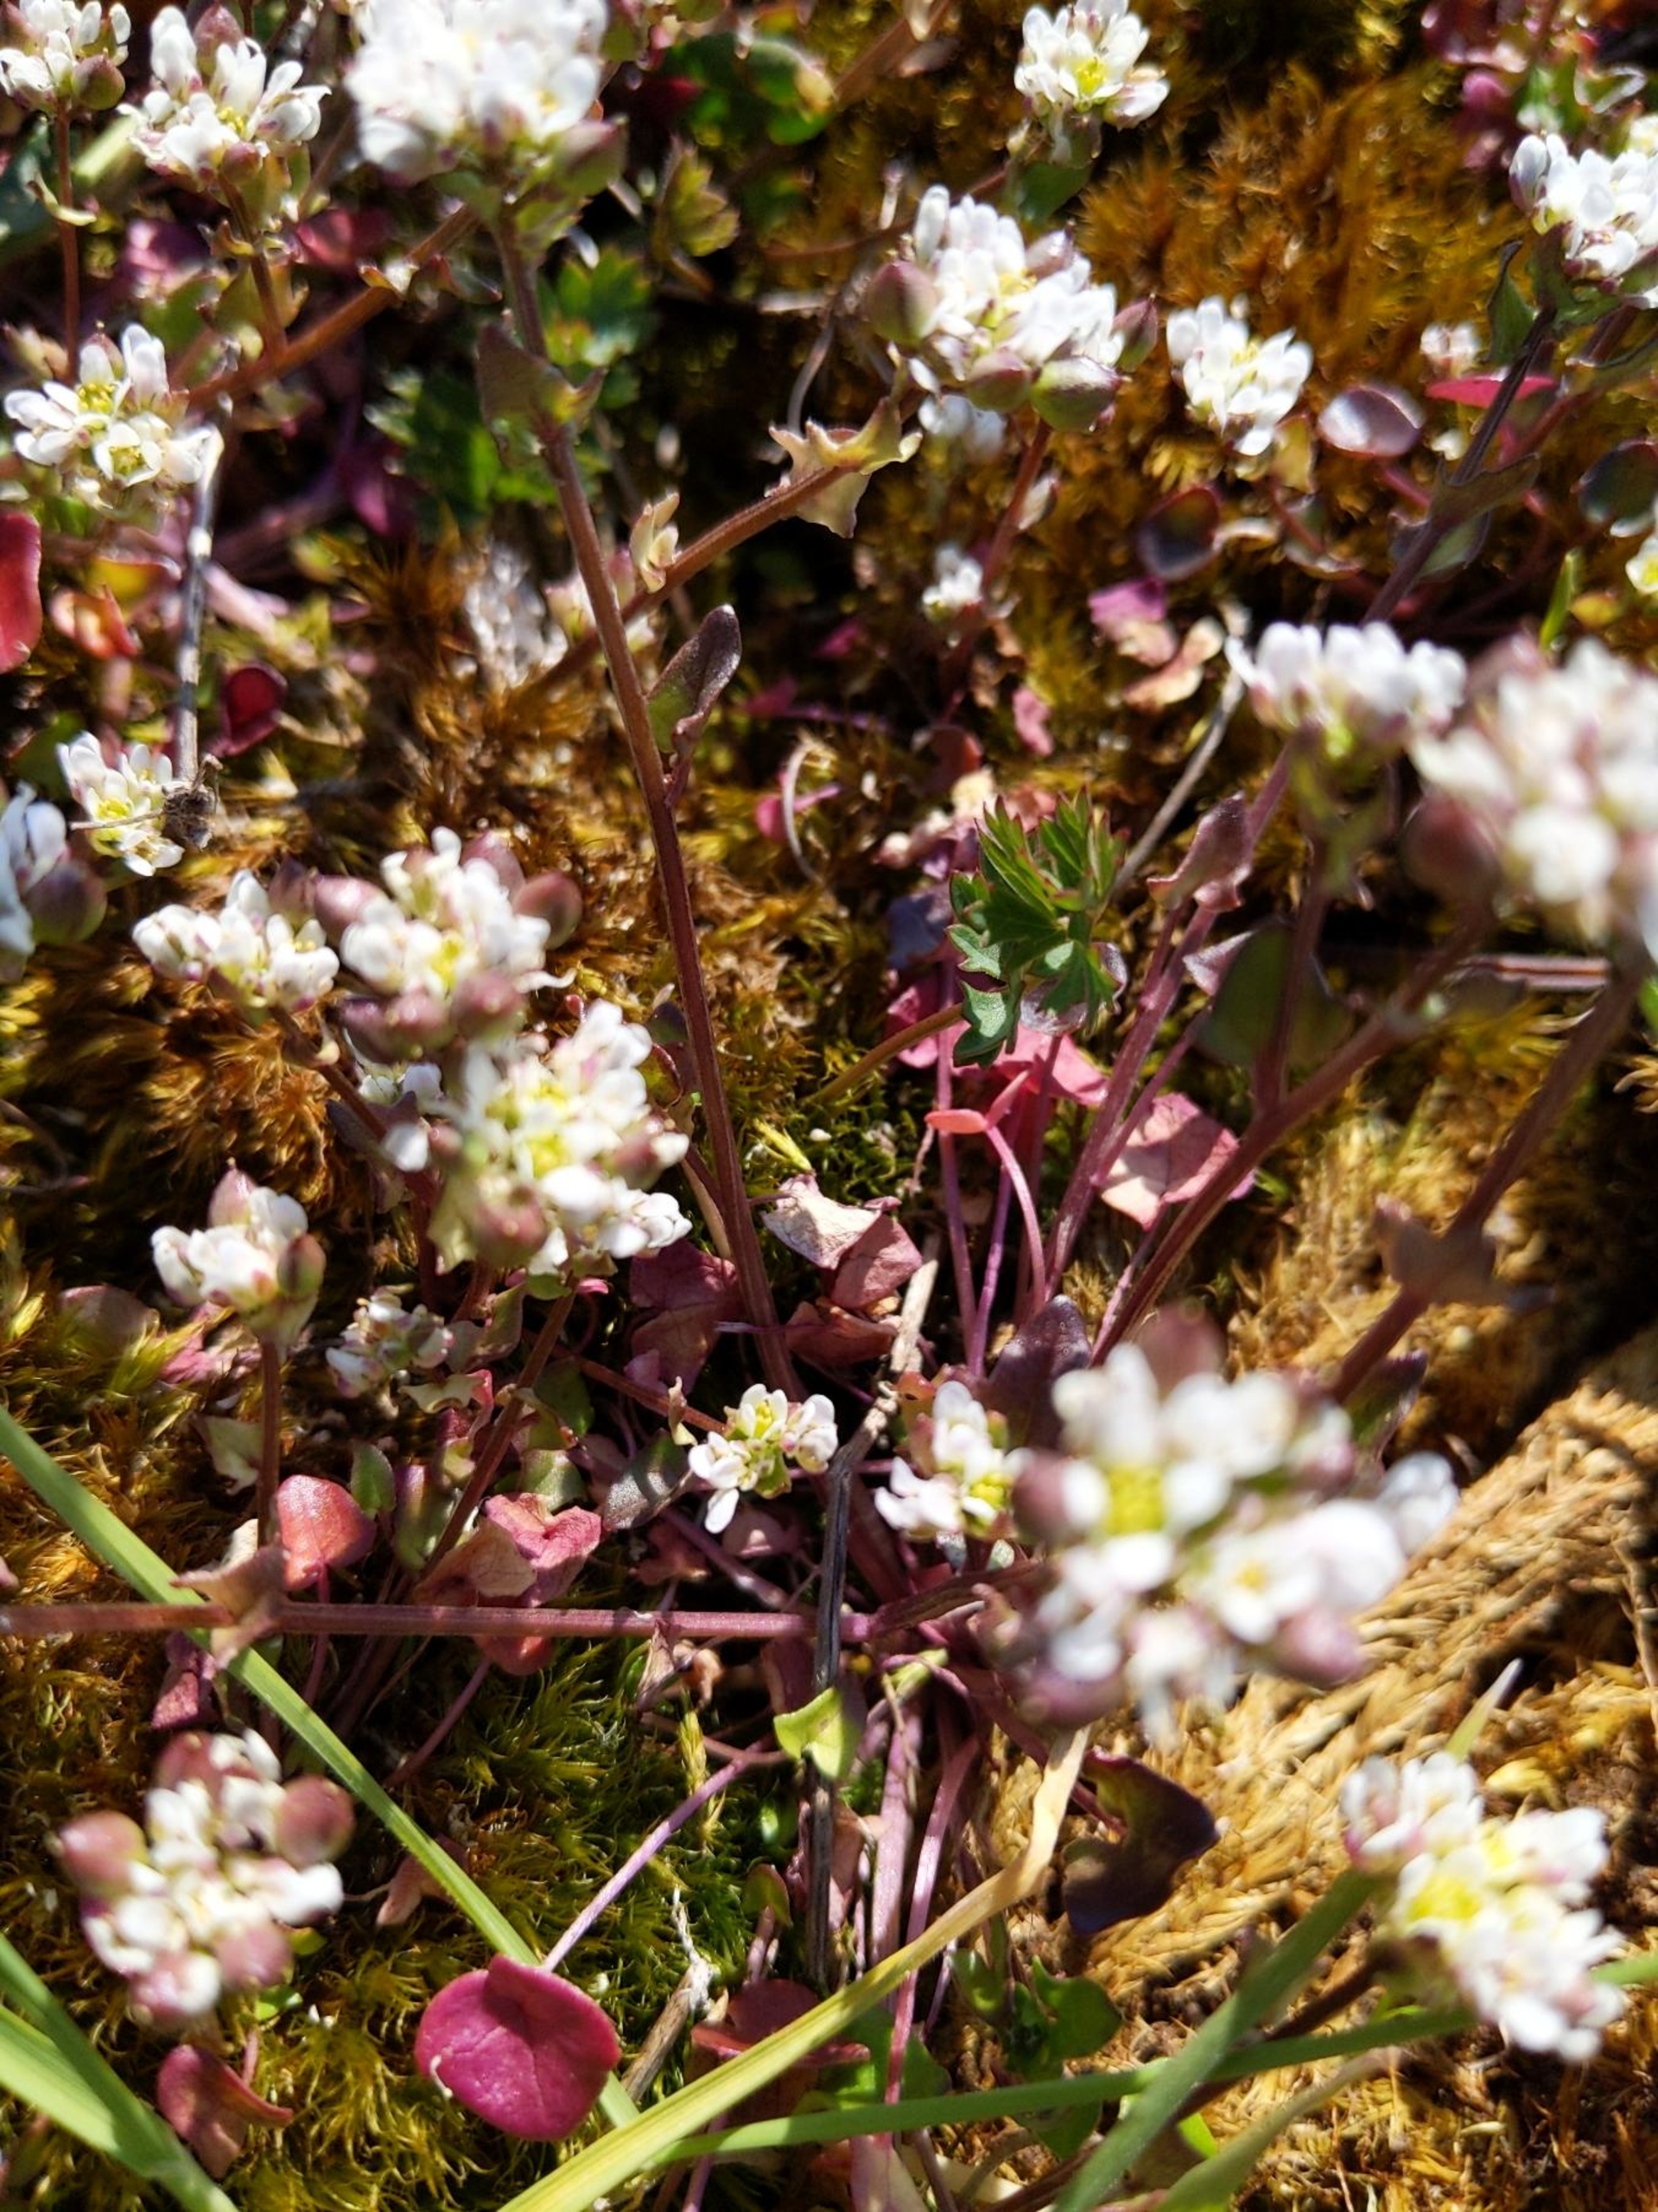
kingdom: Plantae
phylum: Tracheophyta
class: Magnoliopsida
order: Brassicales
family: Brassicaceae
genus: Cochlearia
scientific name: Cochlearia danica
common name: Dansk kokleare
